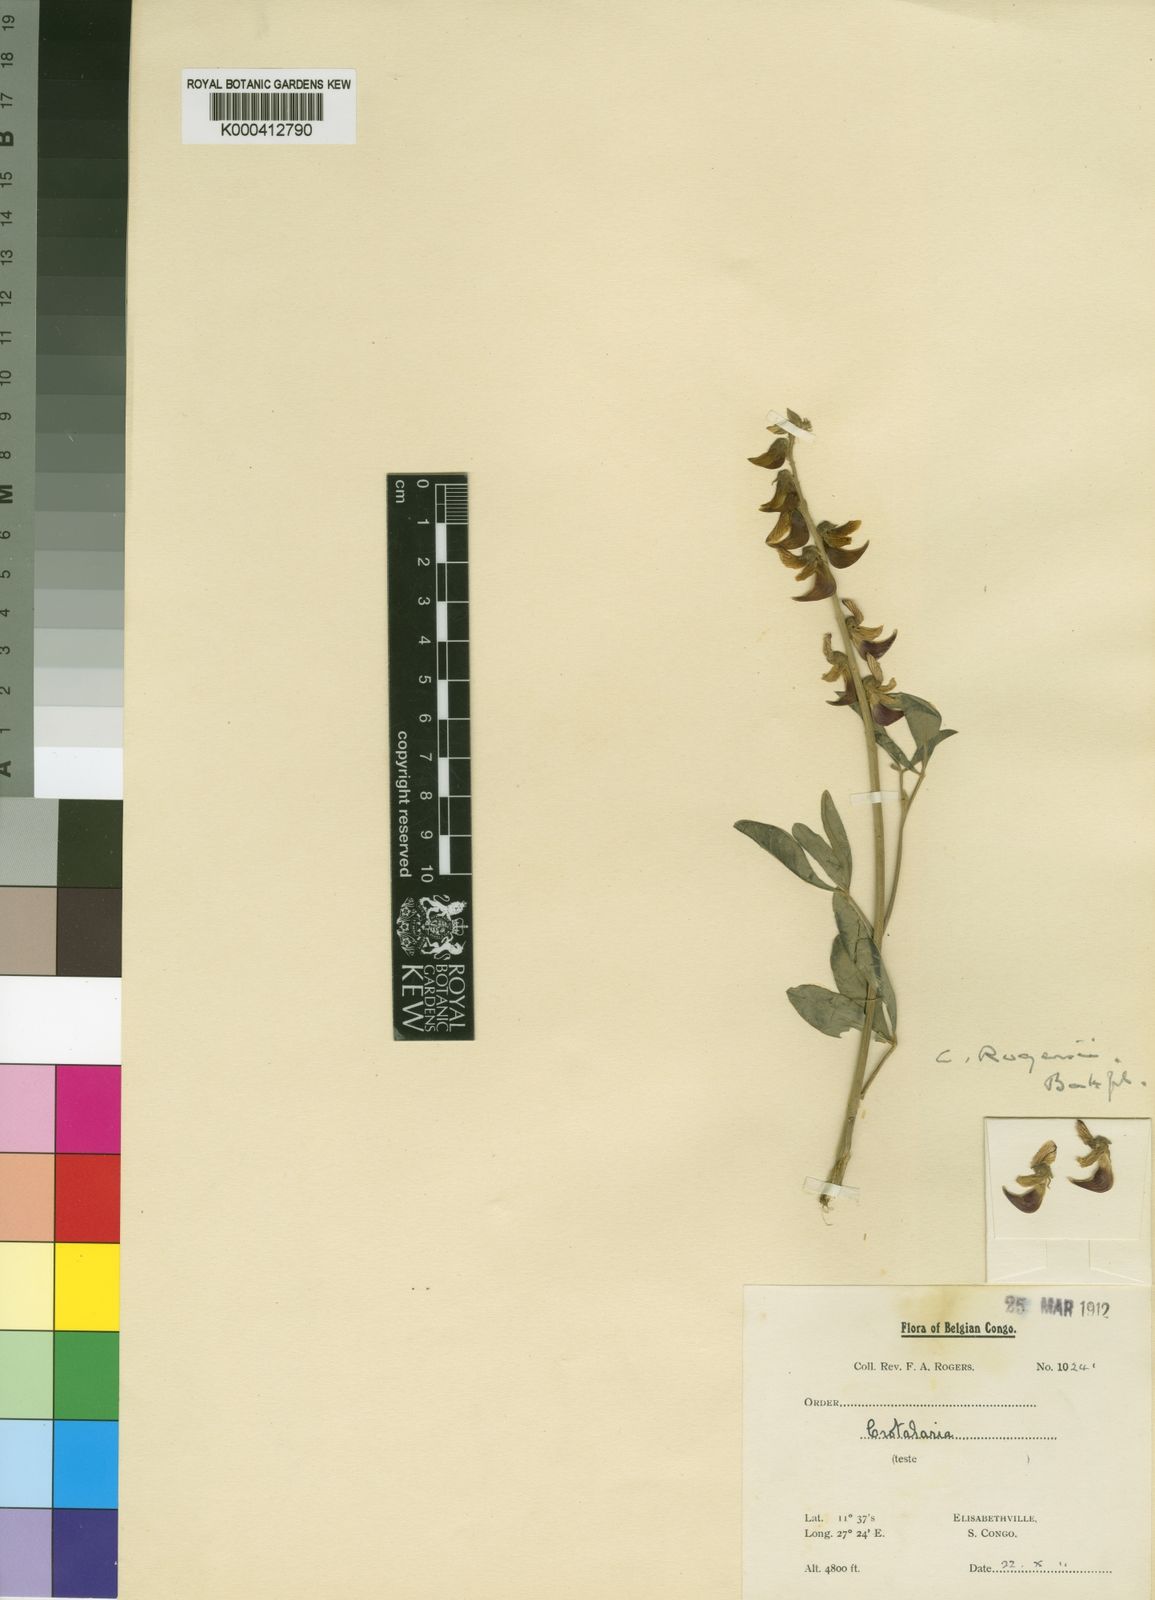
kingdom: Plantae
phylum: Tracheophyta
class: Magnoliopsida
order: Fabales
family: Fabaceae
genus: Crotalaria
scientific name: Crotalaria rogersii
